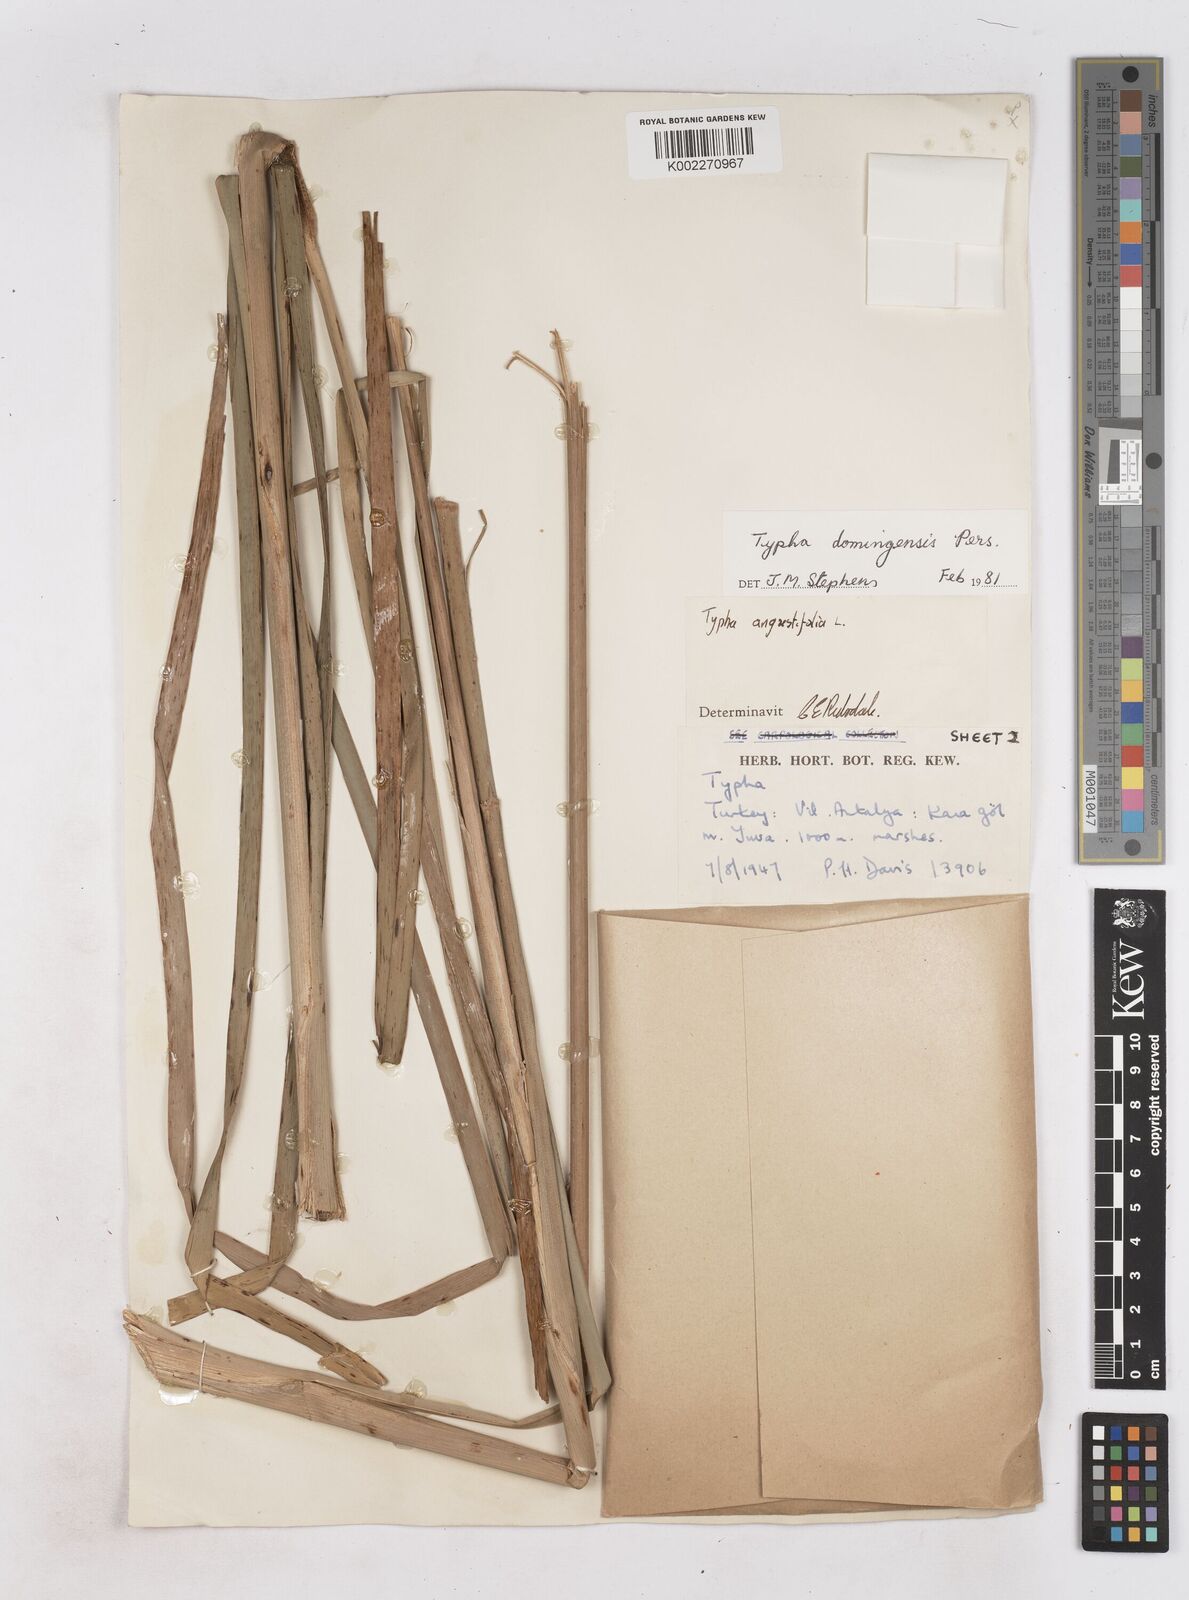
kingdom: Plantae
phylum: Tracheophyta
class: Liliopsida
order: Poales
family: Typhaceae
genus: Typha
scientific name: Typha domingensis
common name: Southern cattail
